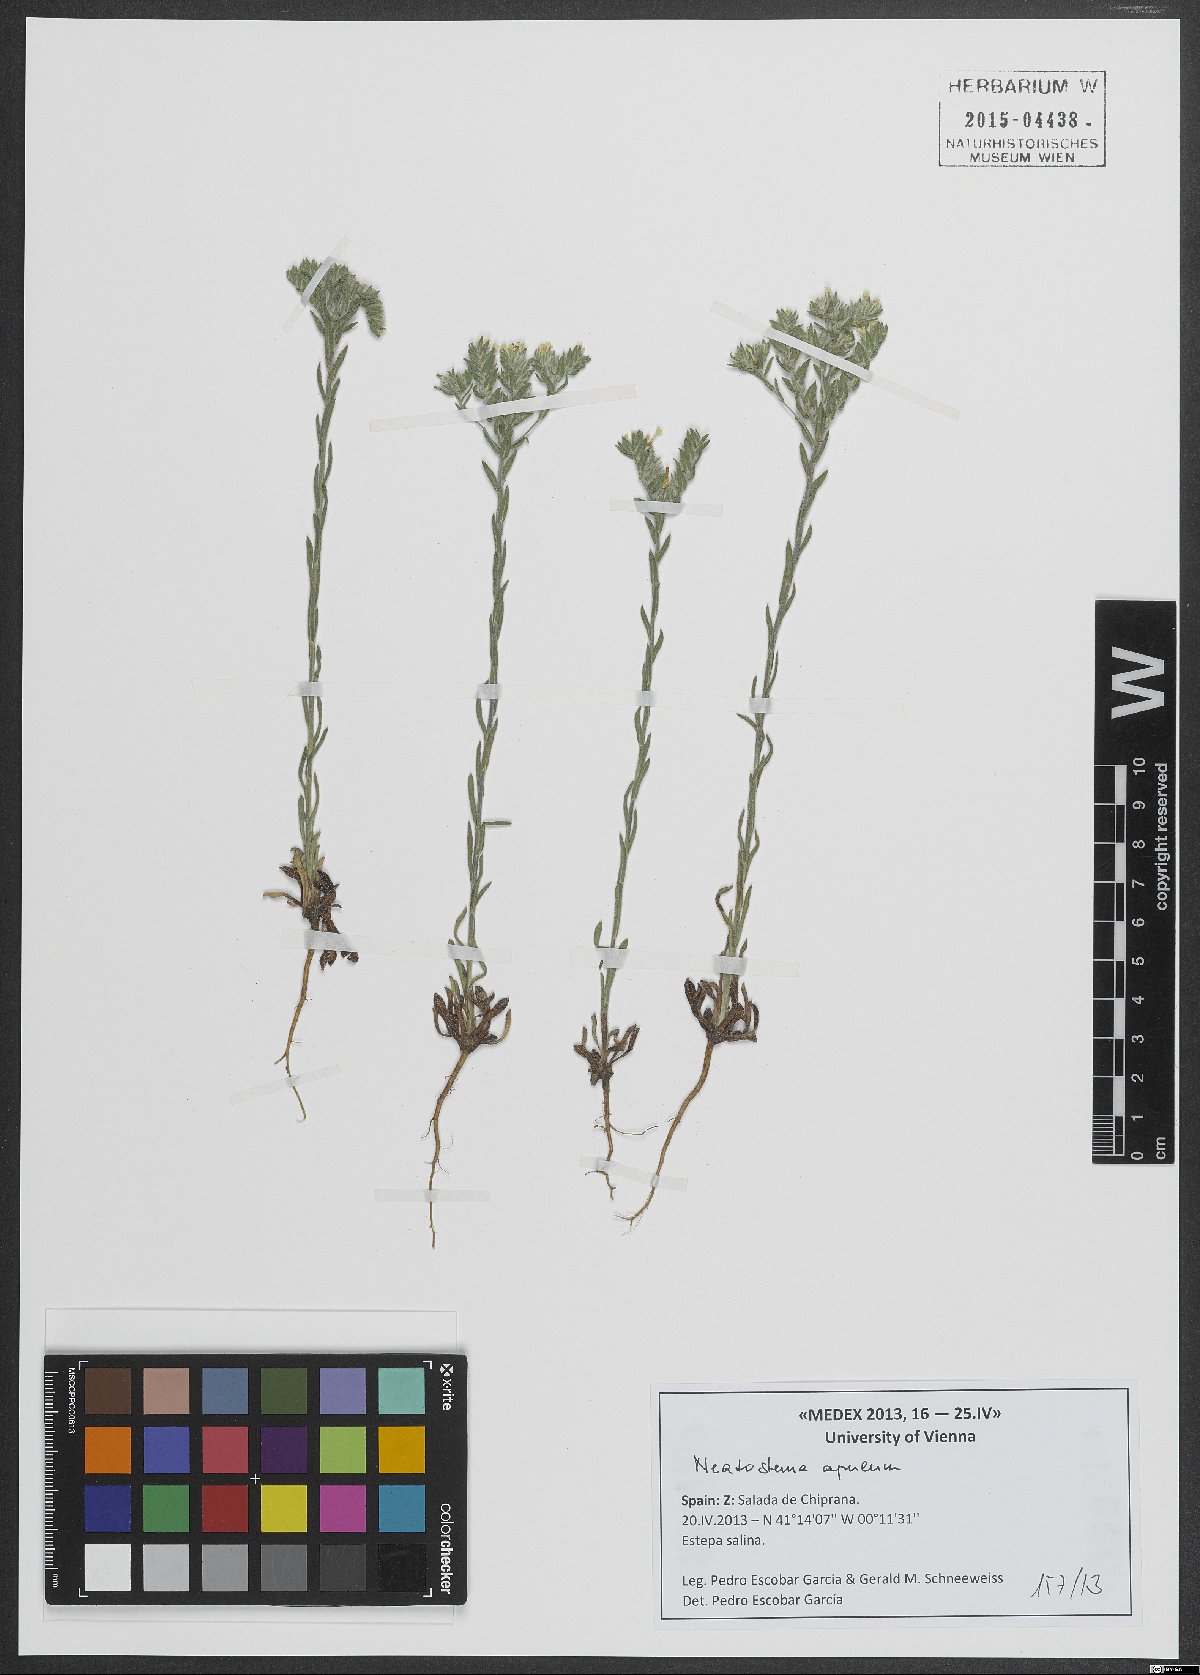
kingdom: Plantae
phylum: Tracheophyta
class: Magnoliopsida
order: Boraginales
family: Boraginaceae
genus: Neatostema
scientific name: Neatostema apulum
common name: Hairy sheepweed
